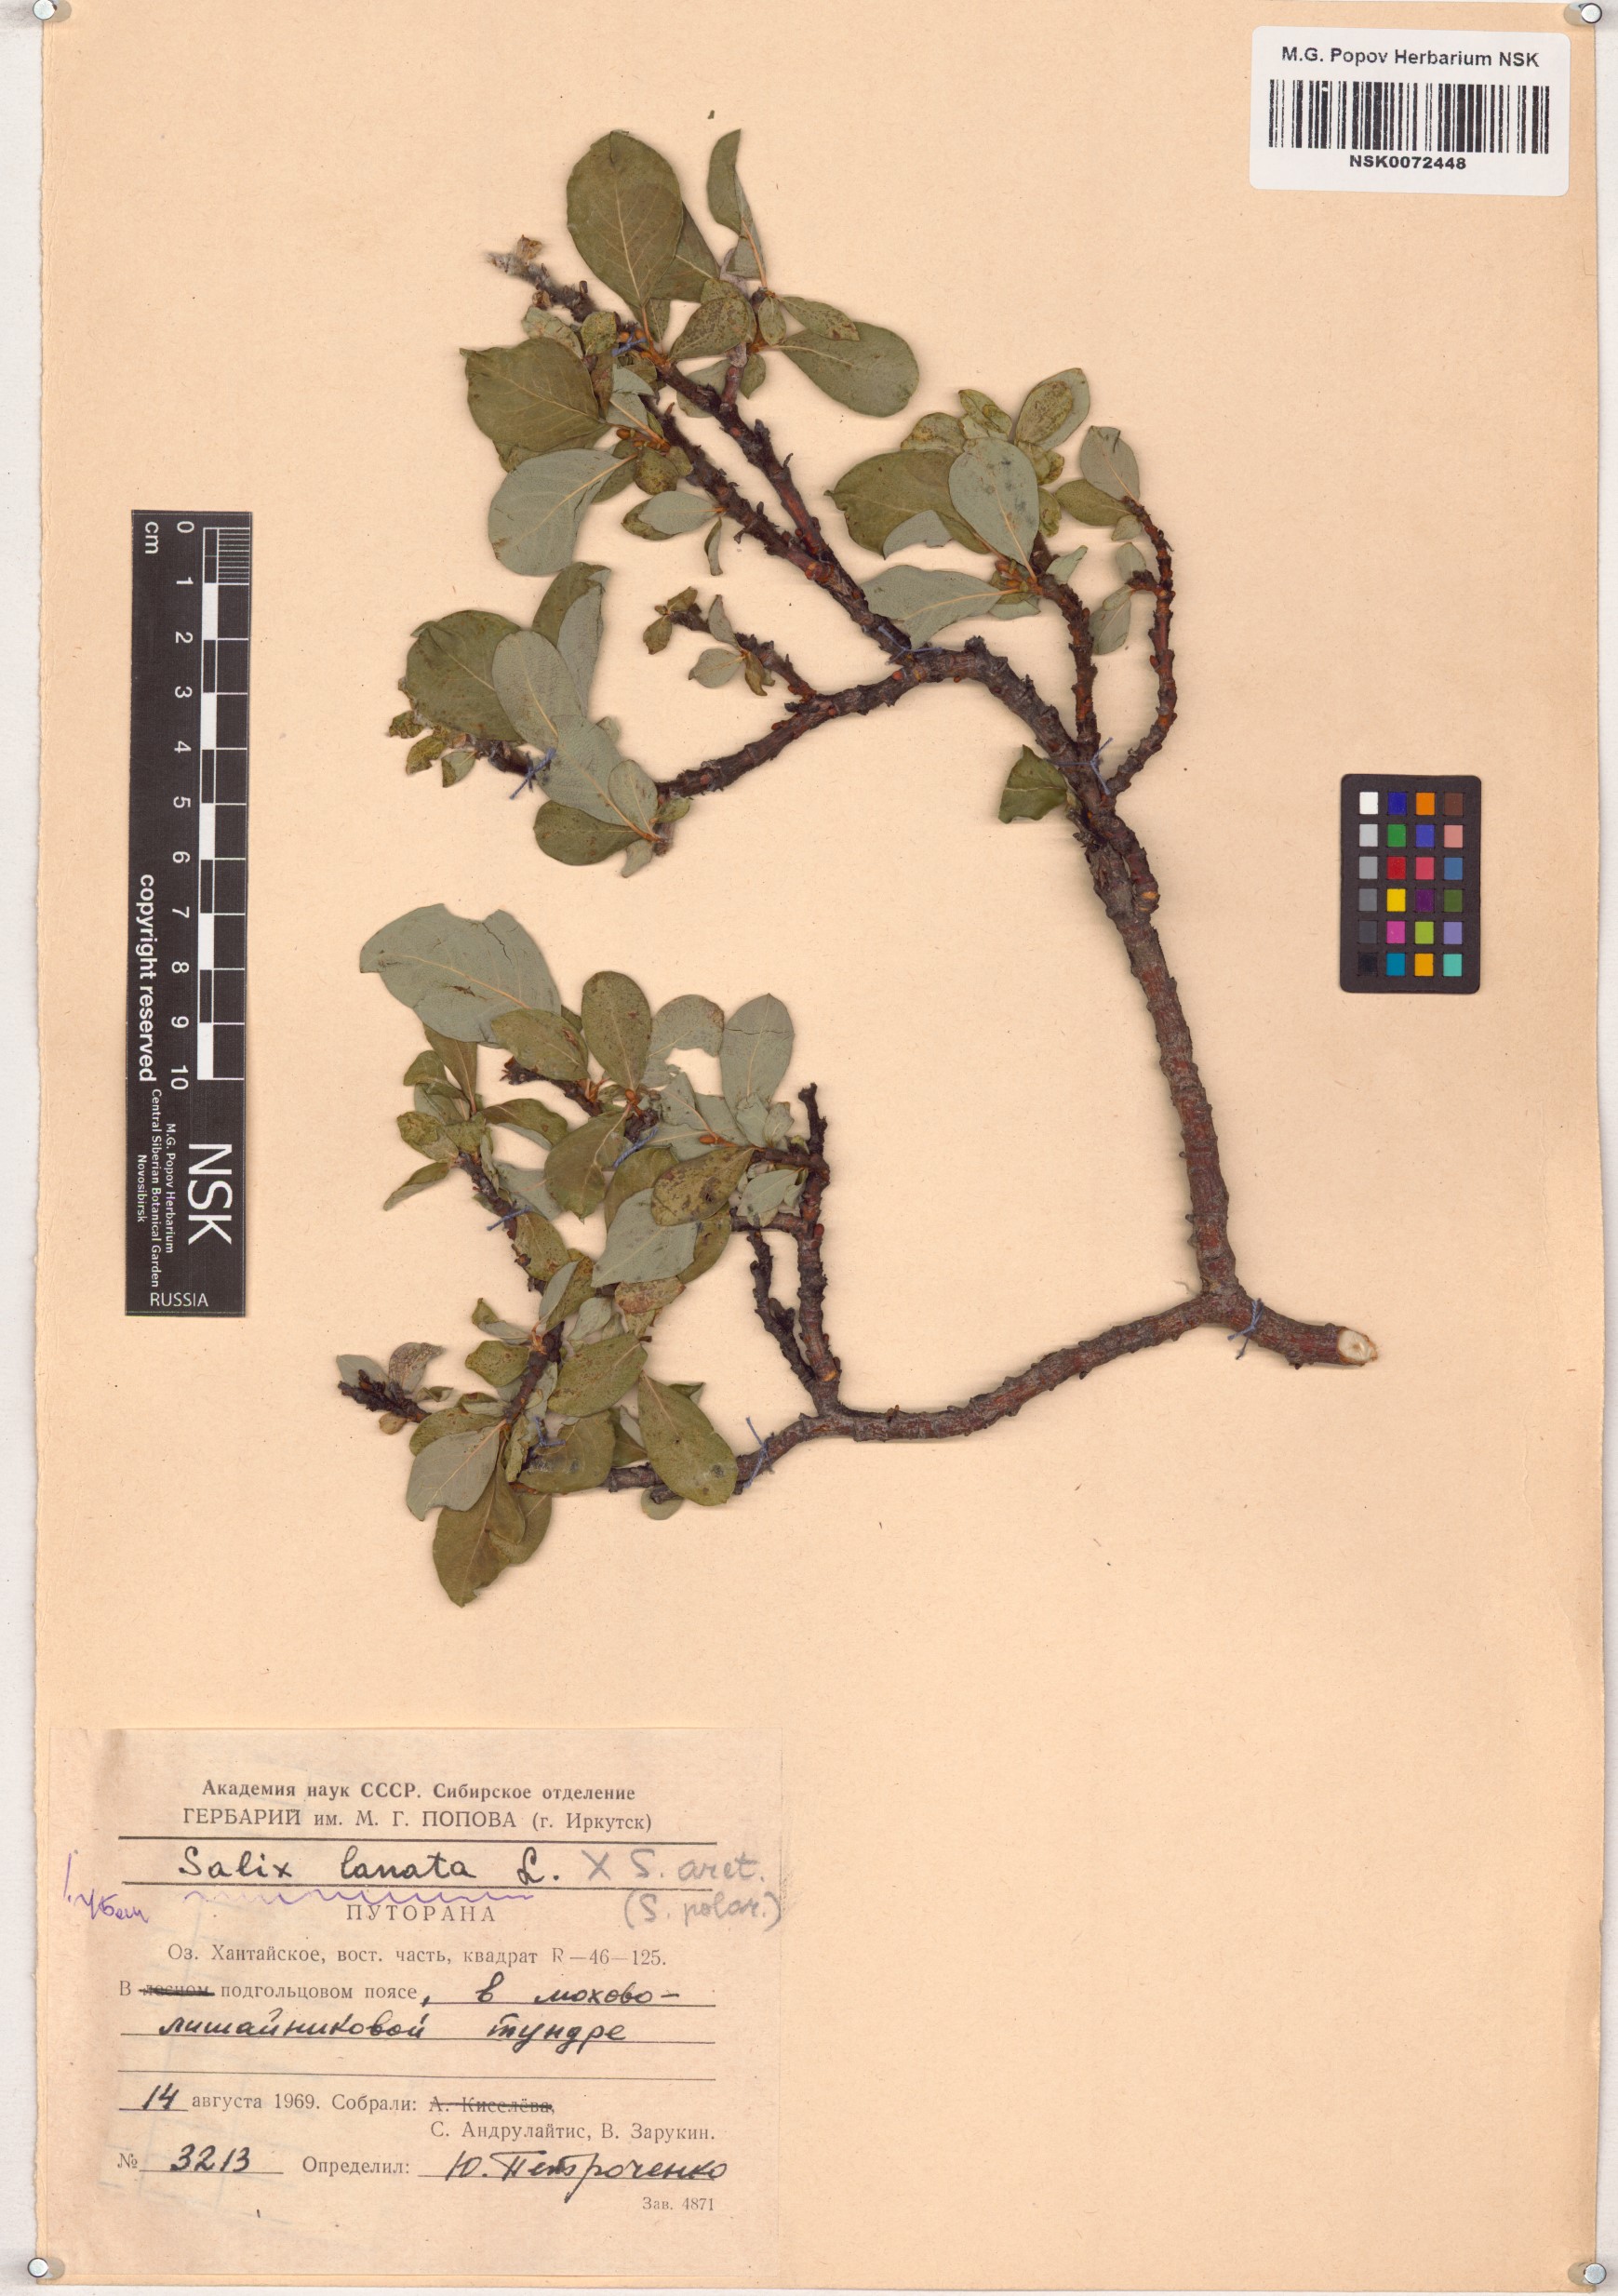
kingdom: Plantae
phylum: Tracheophyta
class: Magnoliopsida
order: Malpighiales
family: Salicaceae
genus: Salix
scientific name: Salix lanata
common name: Woolly willow
